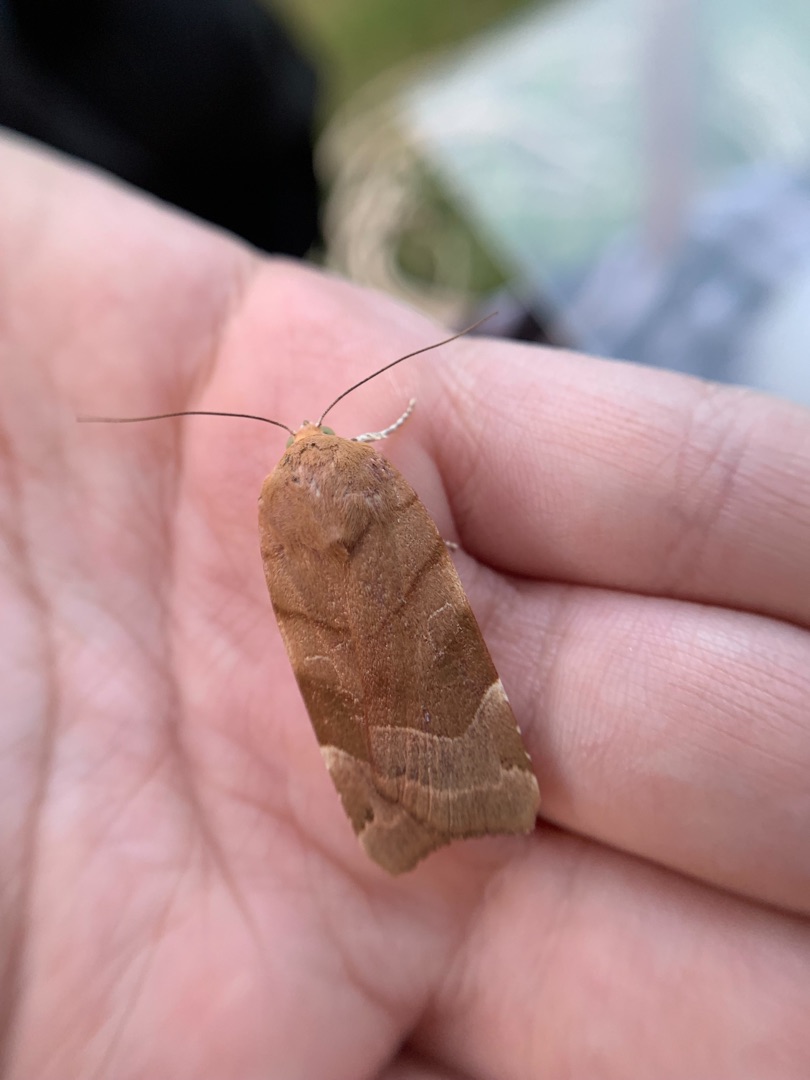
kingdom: Animalia
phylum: Arthropoda
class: Insecta
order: Lepidoptera
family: Noctuidae
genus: Noctua
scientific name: Noctua fimbriata
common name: Gul båndugle
